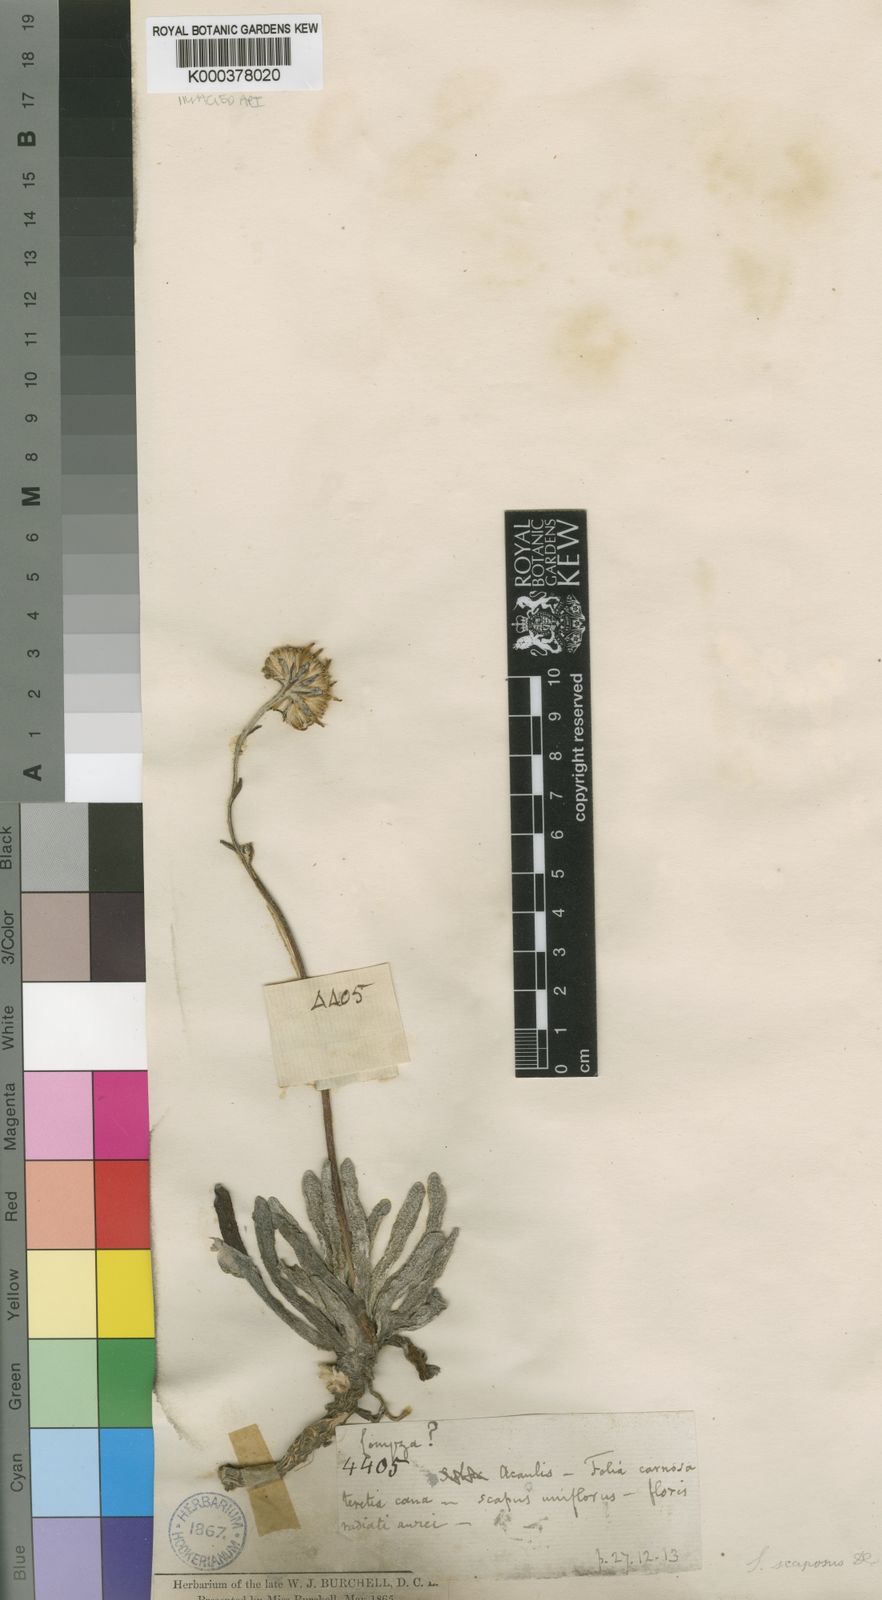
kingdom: Plantae
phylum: Tracheophyta
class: Magnoliopsida
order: Asterales
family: Asteraceae
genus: Caputia
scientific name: Caputia scaposa
